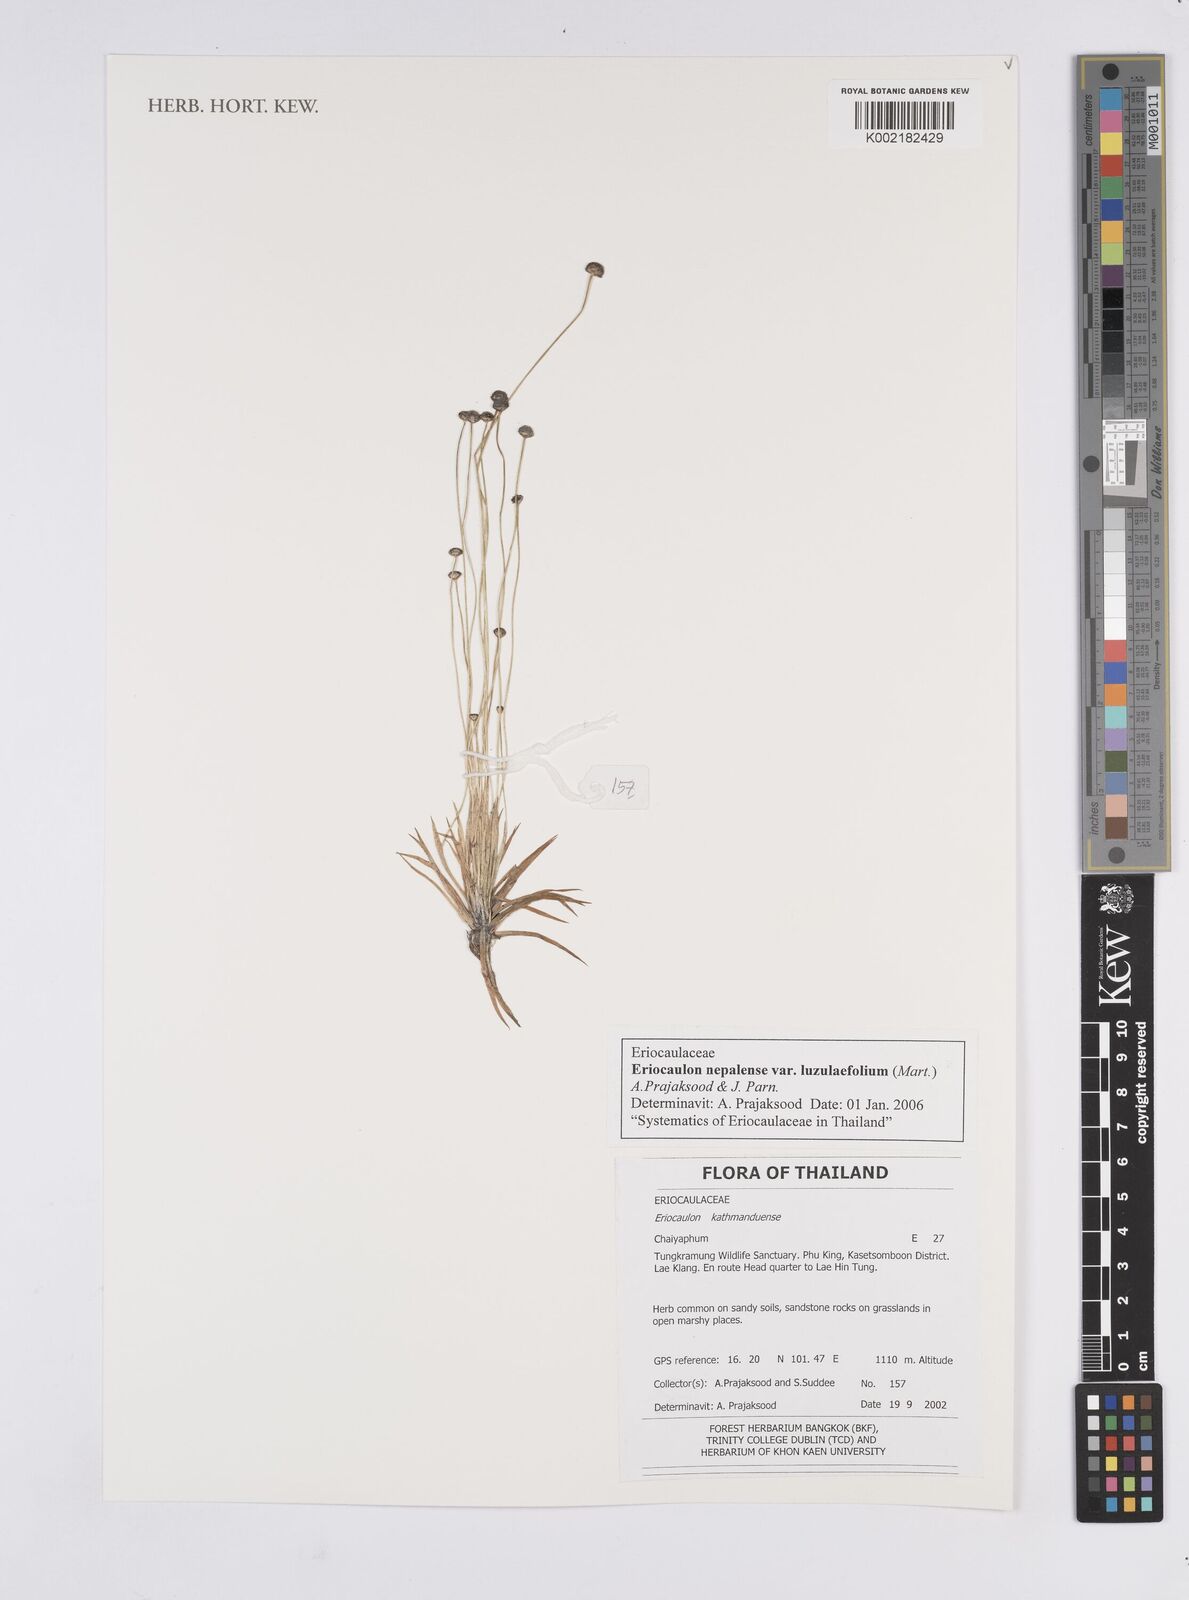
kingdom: Plantae
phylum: Tracheophyta
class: Liliopsida
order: Poales
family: Eriocaulaceae
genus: Eriocaulon
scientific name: Eriocaulon nepalense
